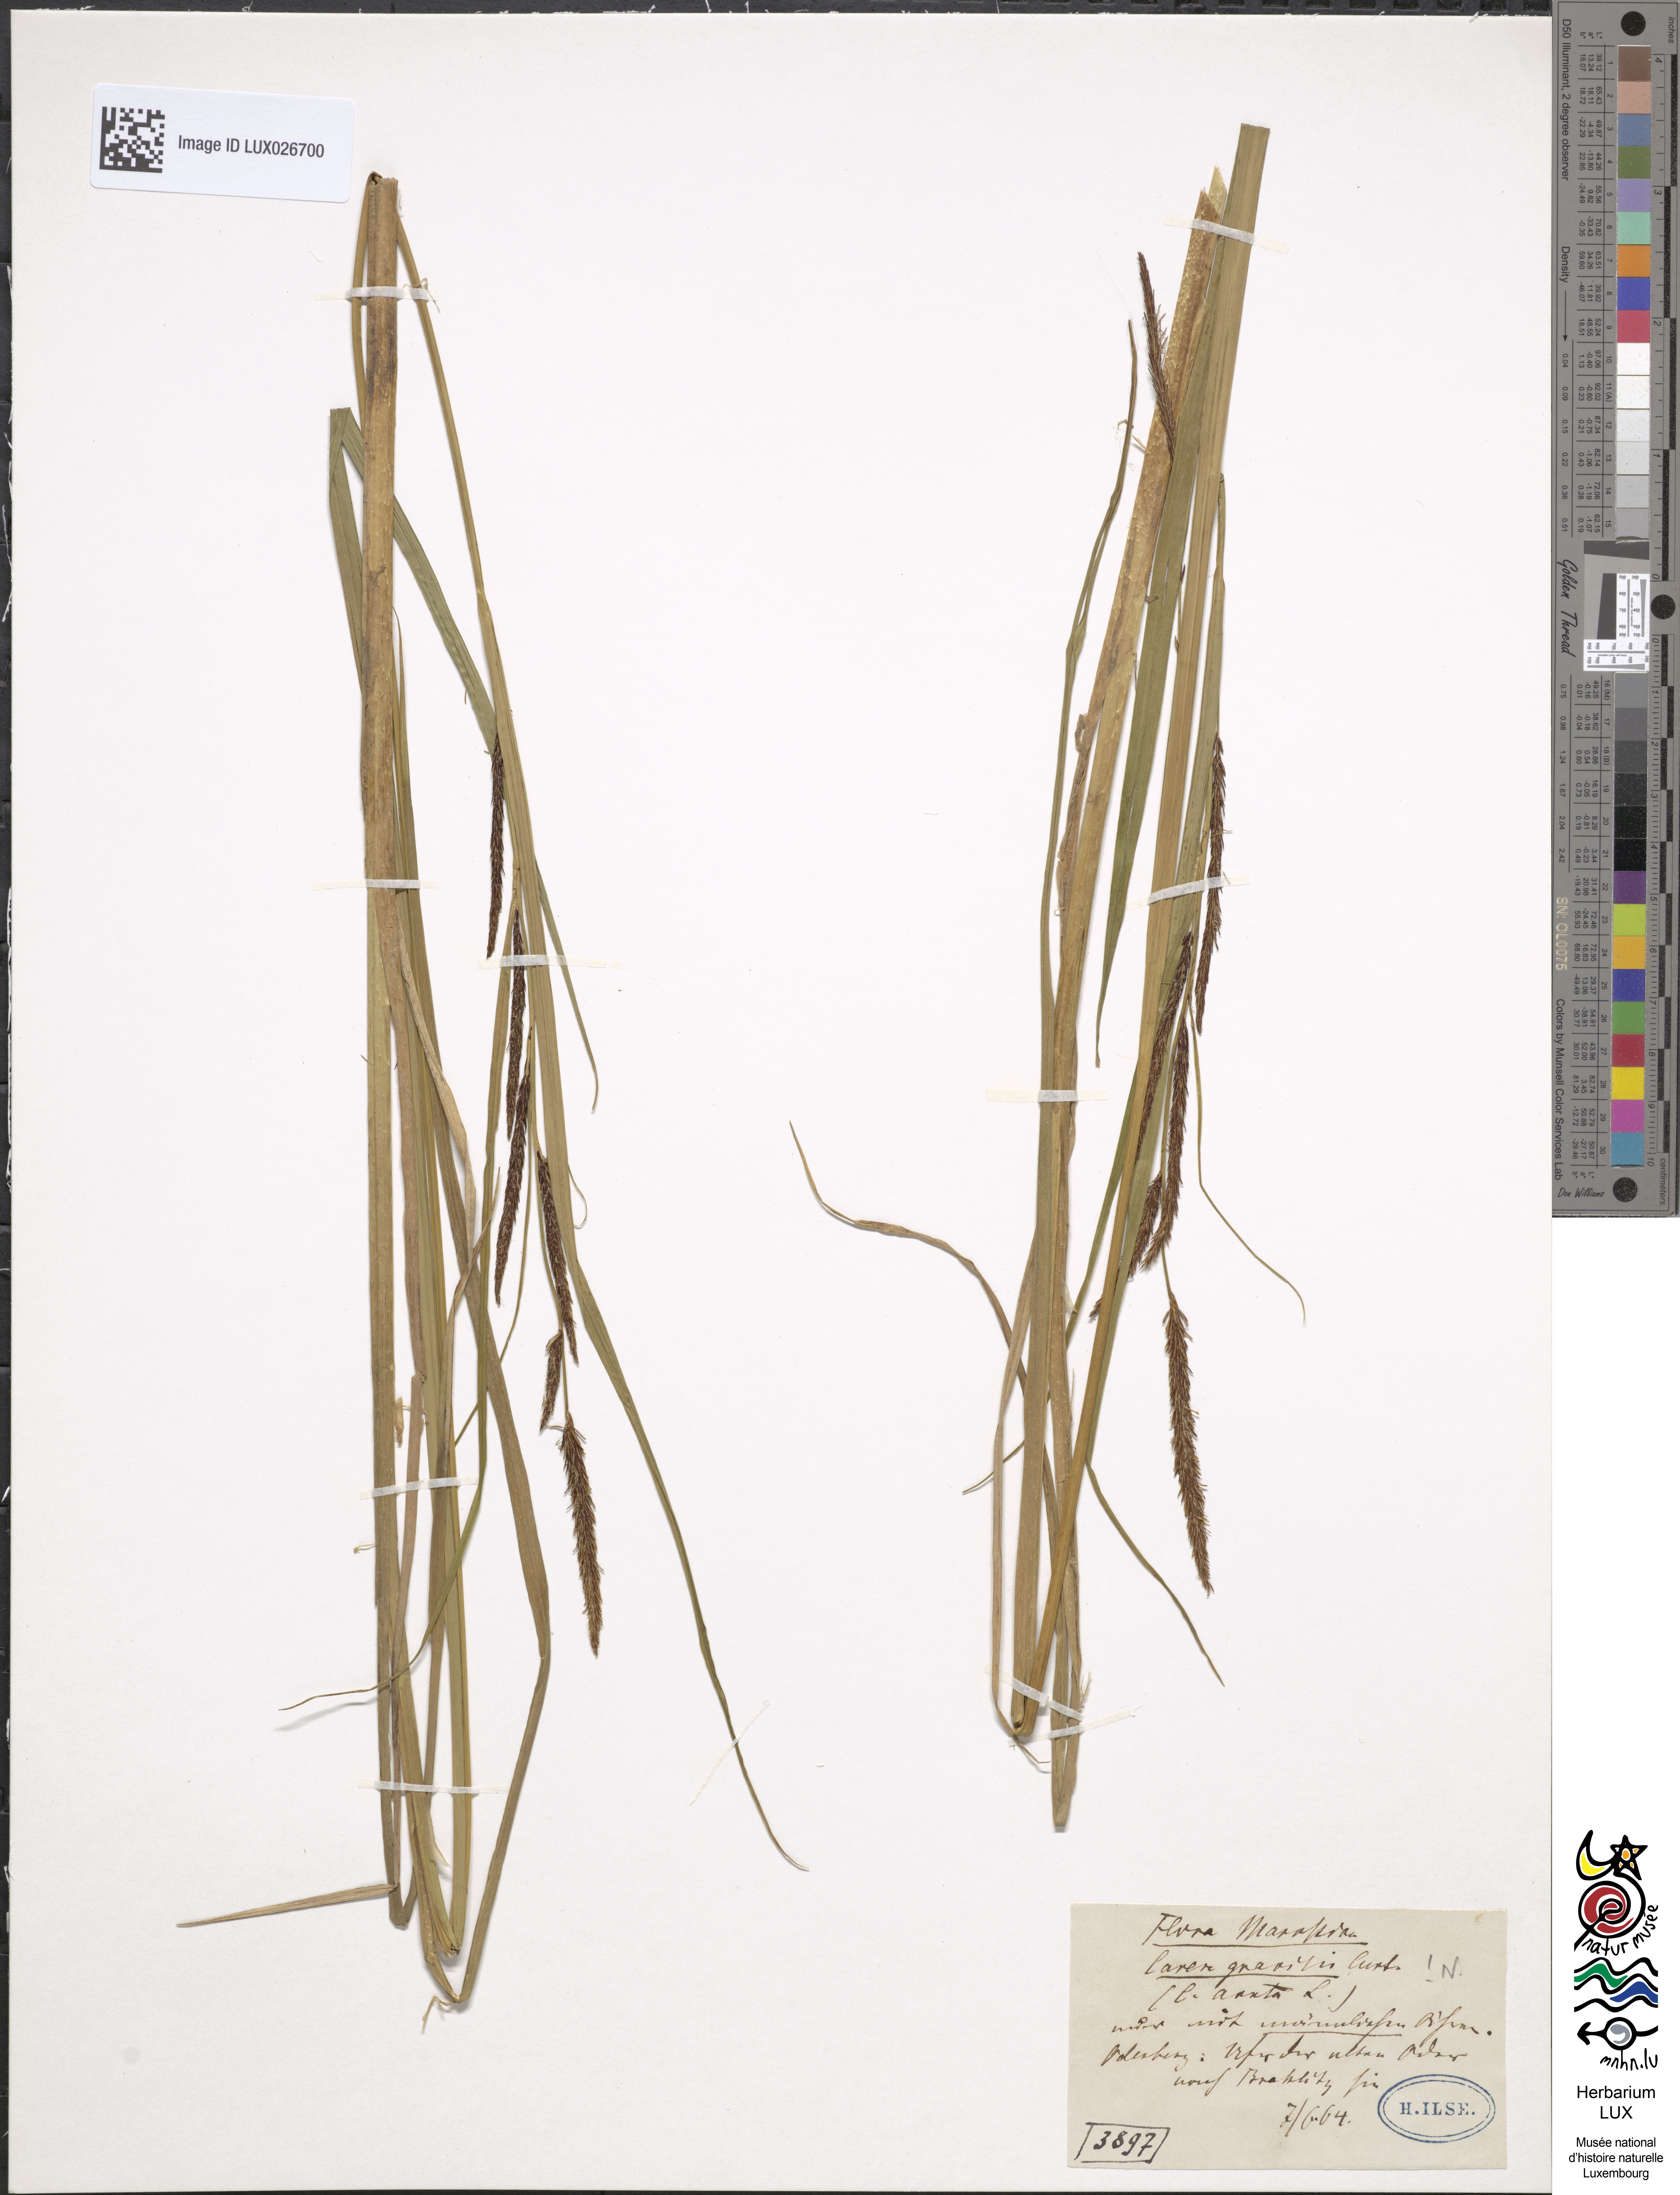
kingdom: Plantae
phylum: Tracheophyta
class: Liliopsida
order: Poales
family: Cyperaceae
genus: Carex
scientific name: Carex acuta
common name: Slender tufted-sedge
